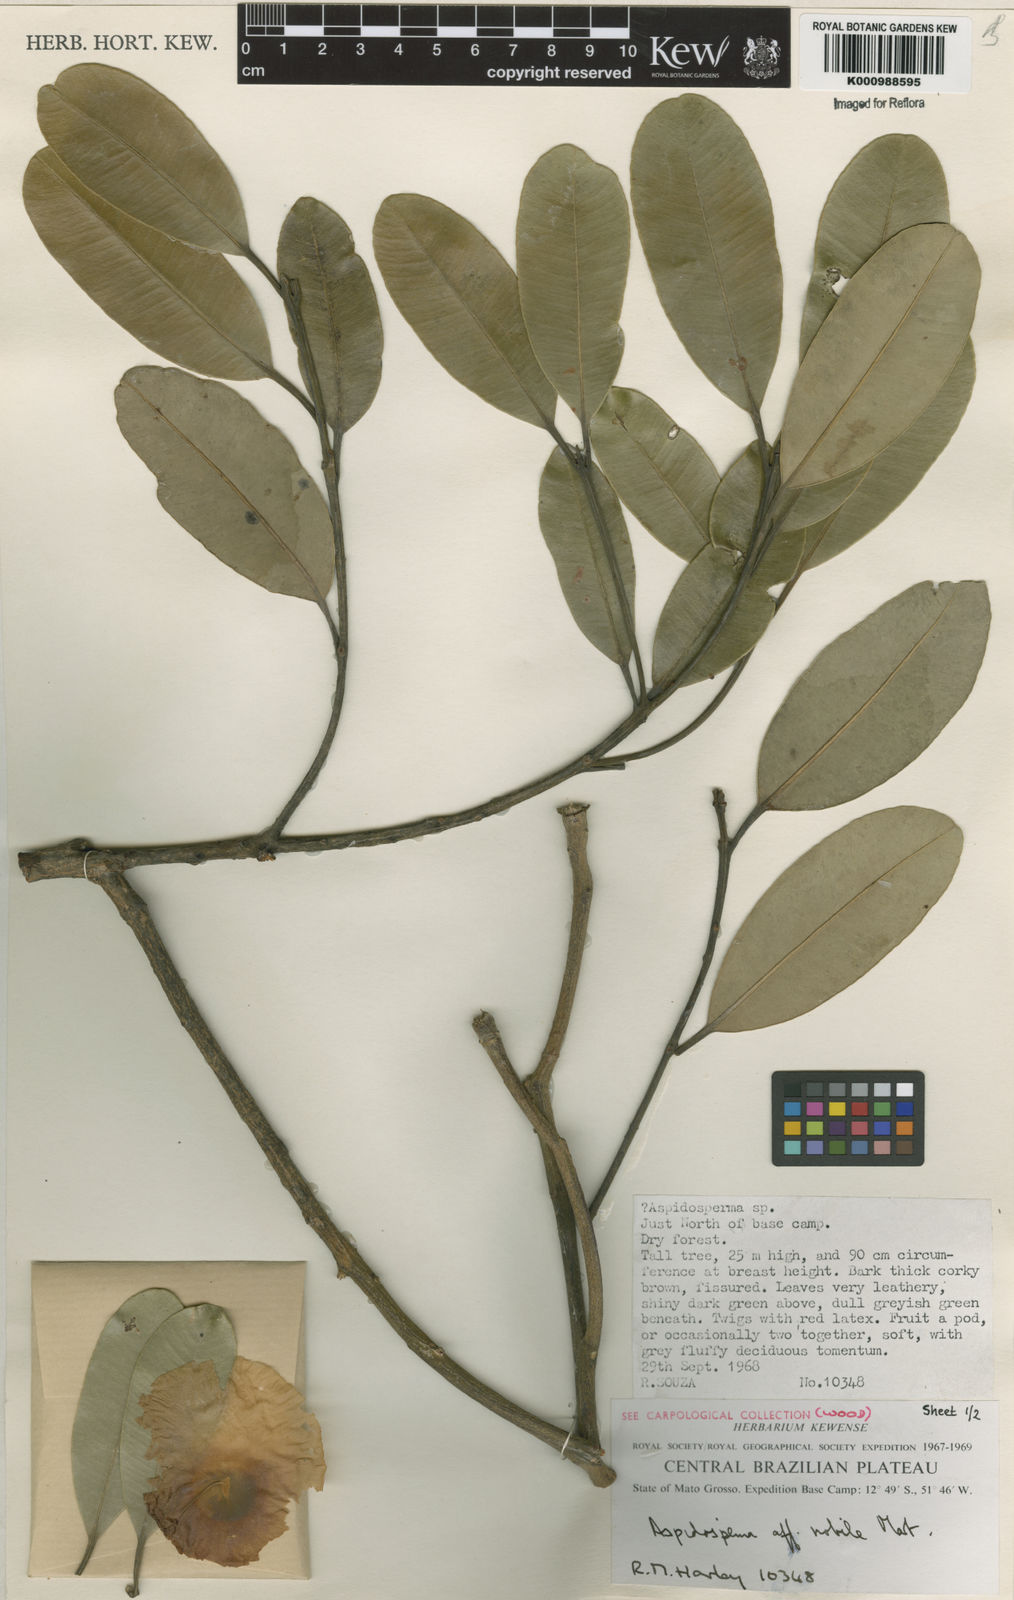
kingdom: Plantae
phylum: Tracheophyta
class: Magnoliopsida
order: Gentianales
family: Apocynaceae
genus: Aspidosperma
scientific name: Aspidosperma
